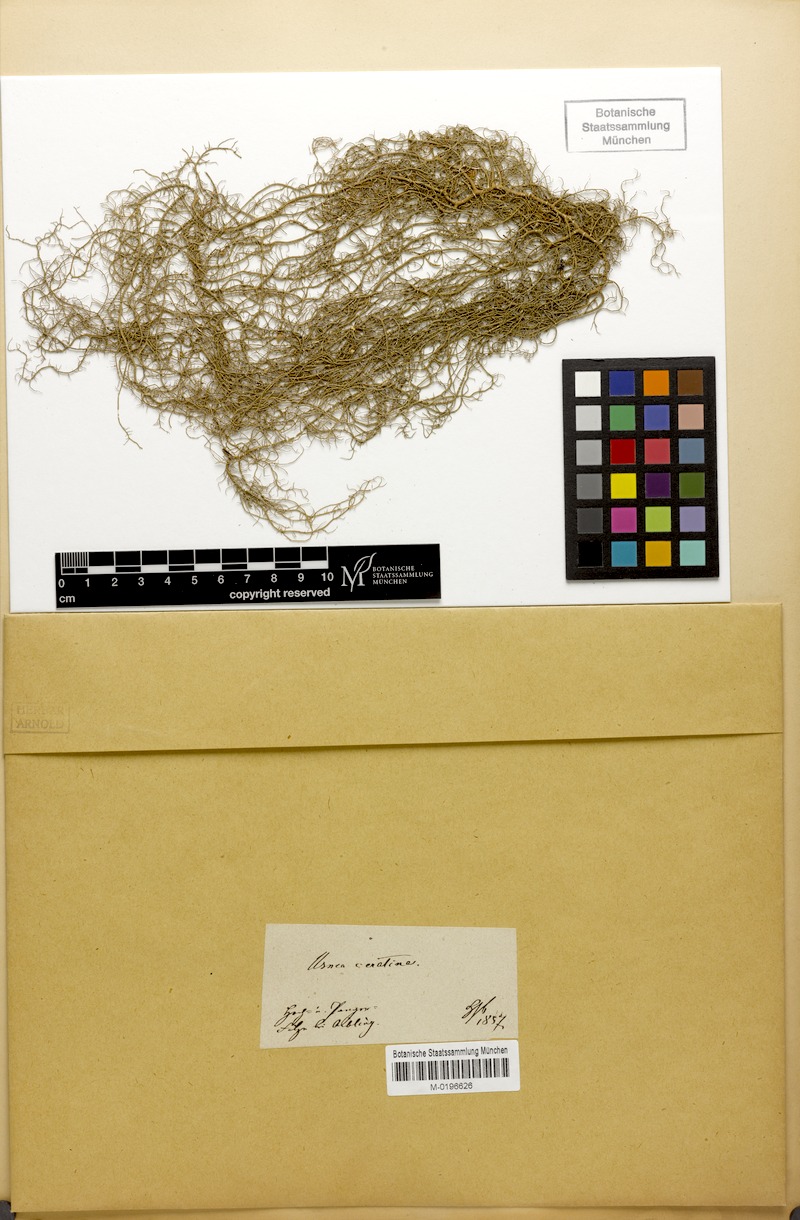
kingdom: Fungi
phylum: Ascomycota
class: Lecanoromycetes
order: Lecanorales
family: Parmeliaceae
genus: Usnea
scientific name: Usnea ceratina
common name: Warty beard lichen
